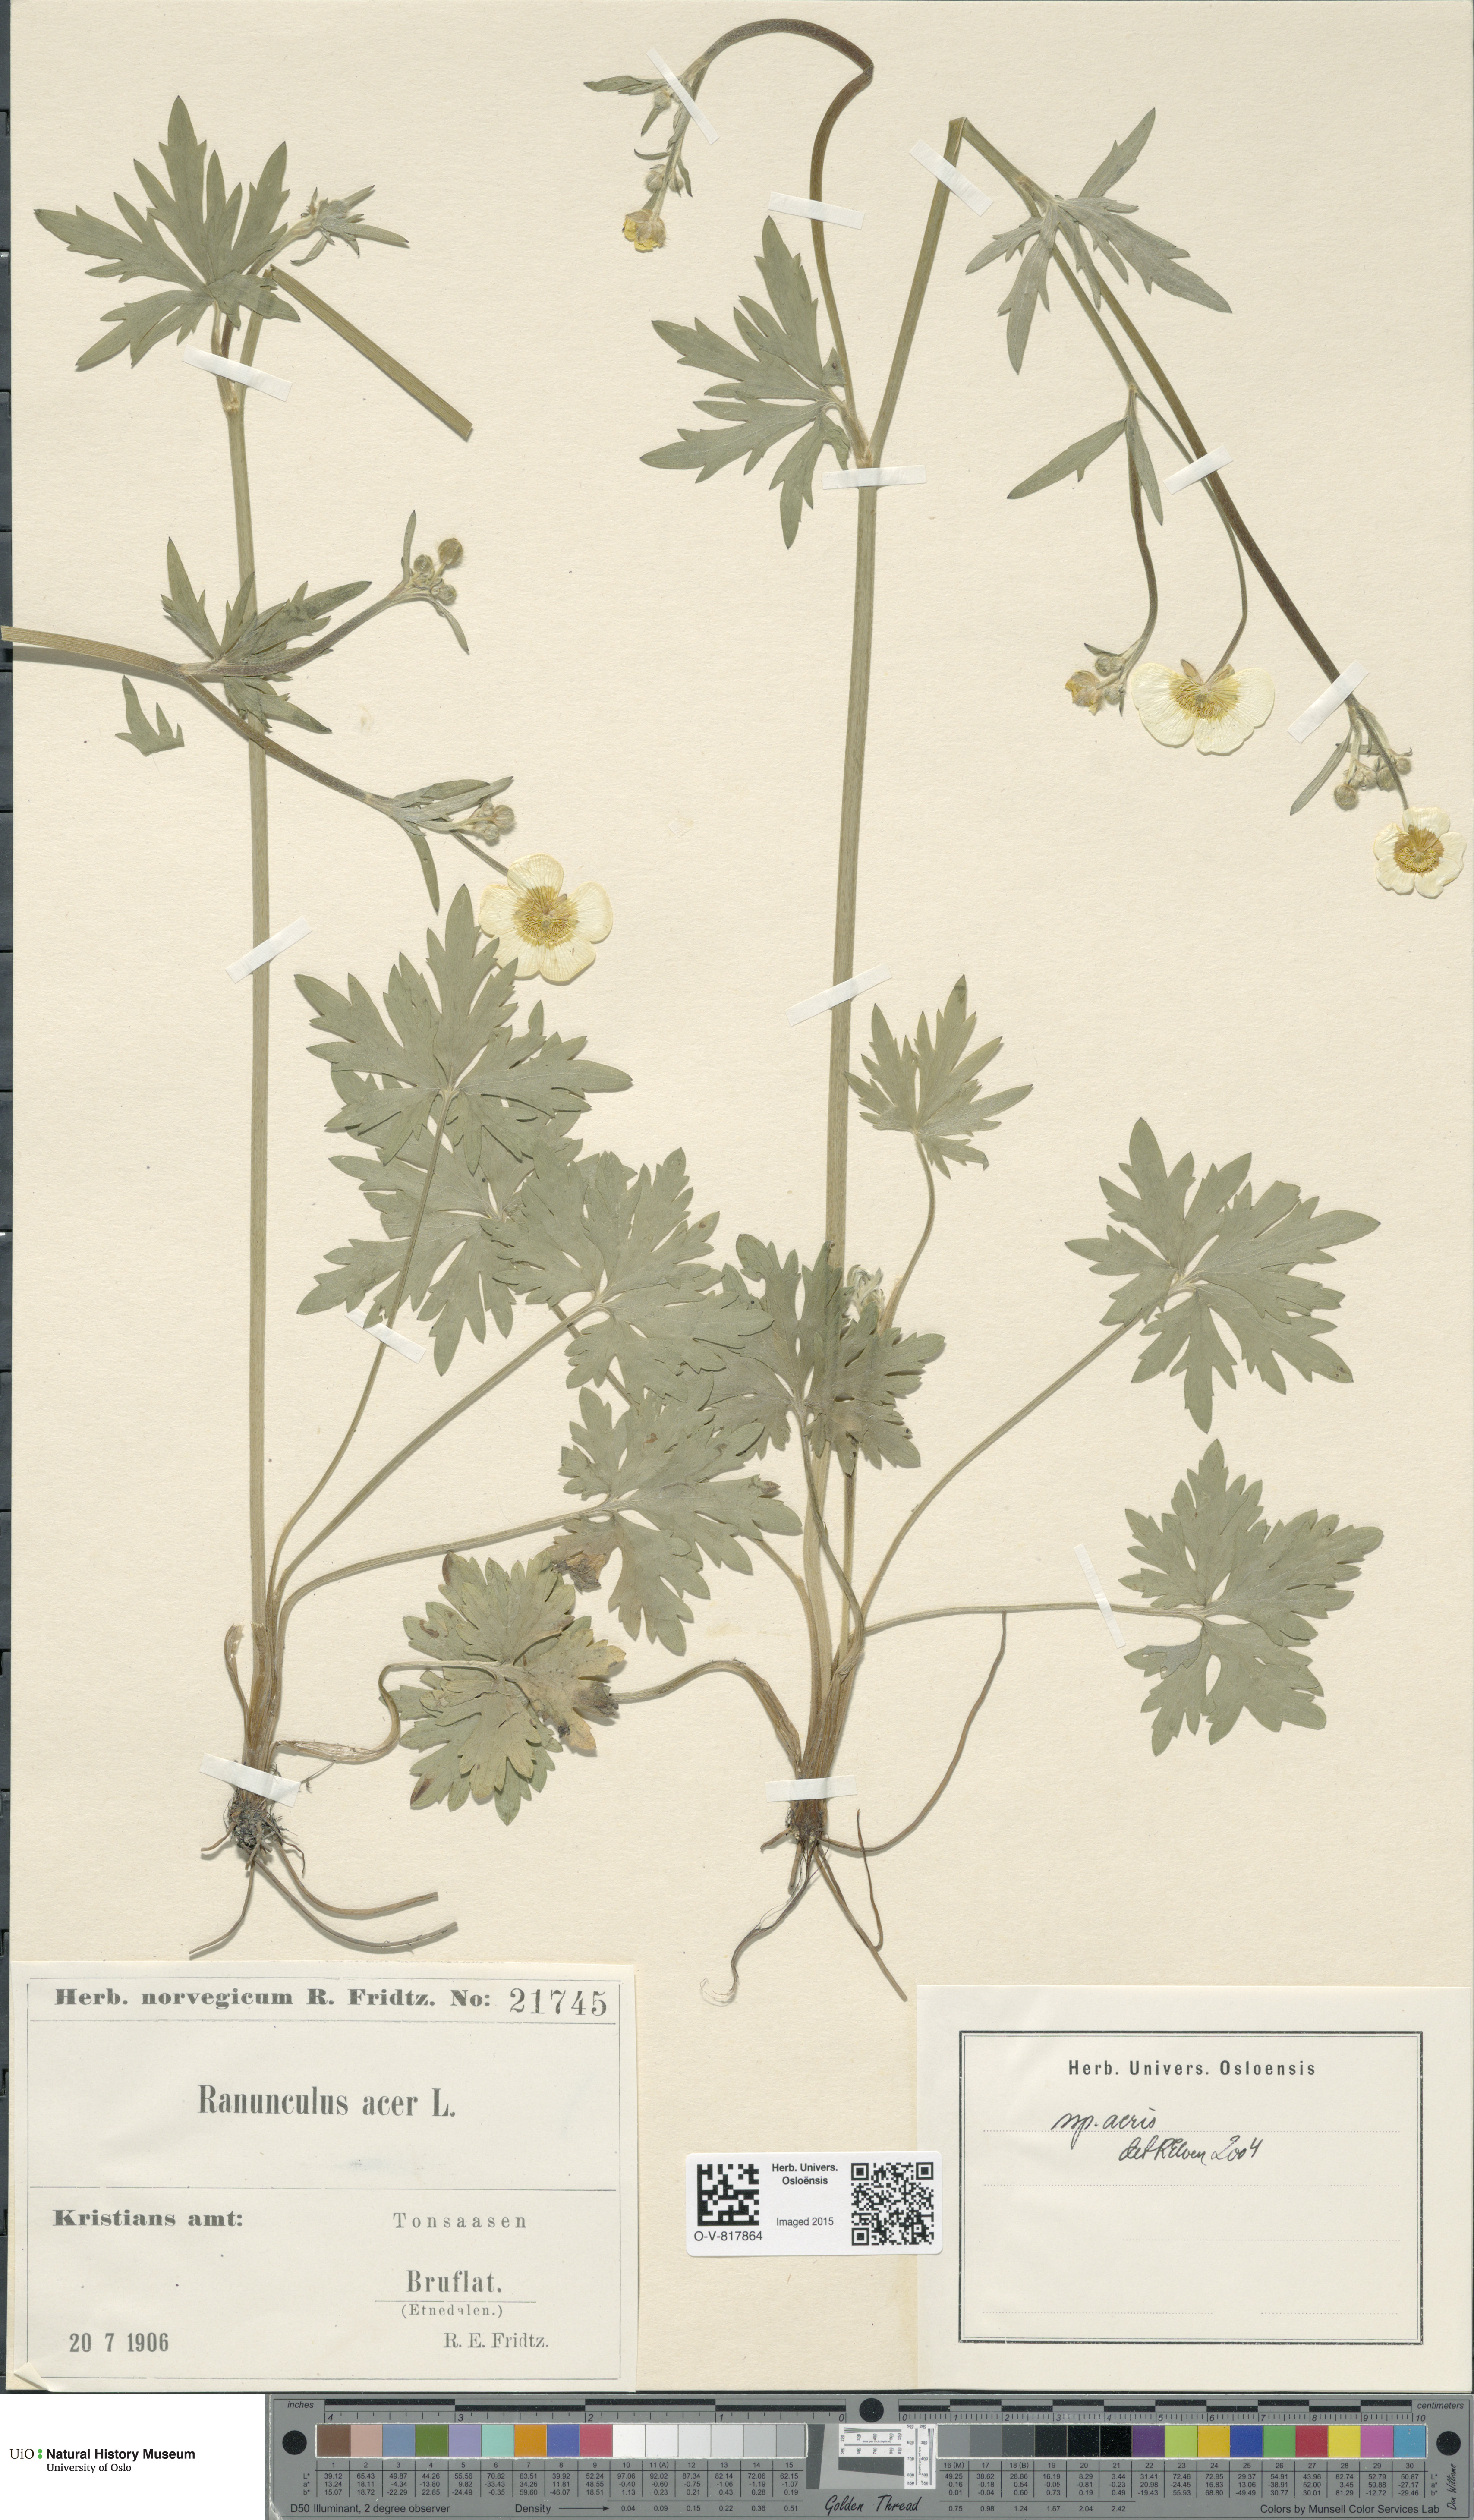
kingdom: Plantae
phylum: Tracheophyta
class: Magnoliopsida
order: Ranunculales
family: Ranunculaceae
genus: Ranunculus
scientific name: Ranunculus acris
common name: Meadow buttercup
